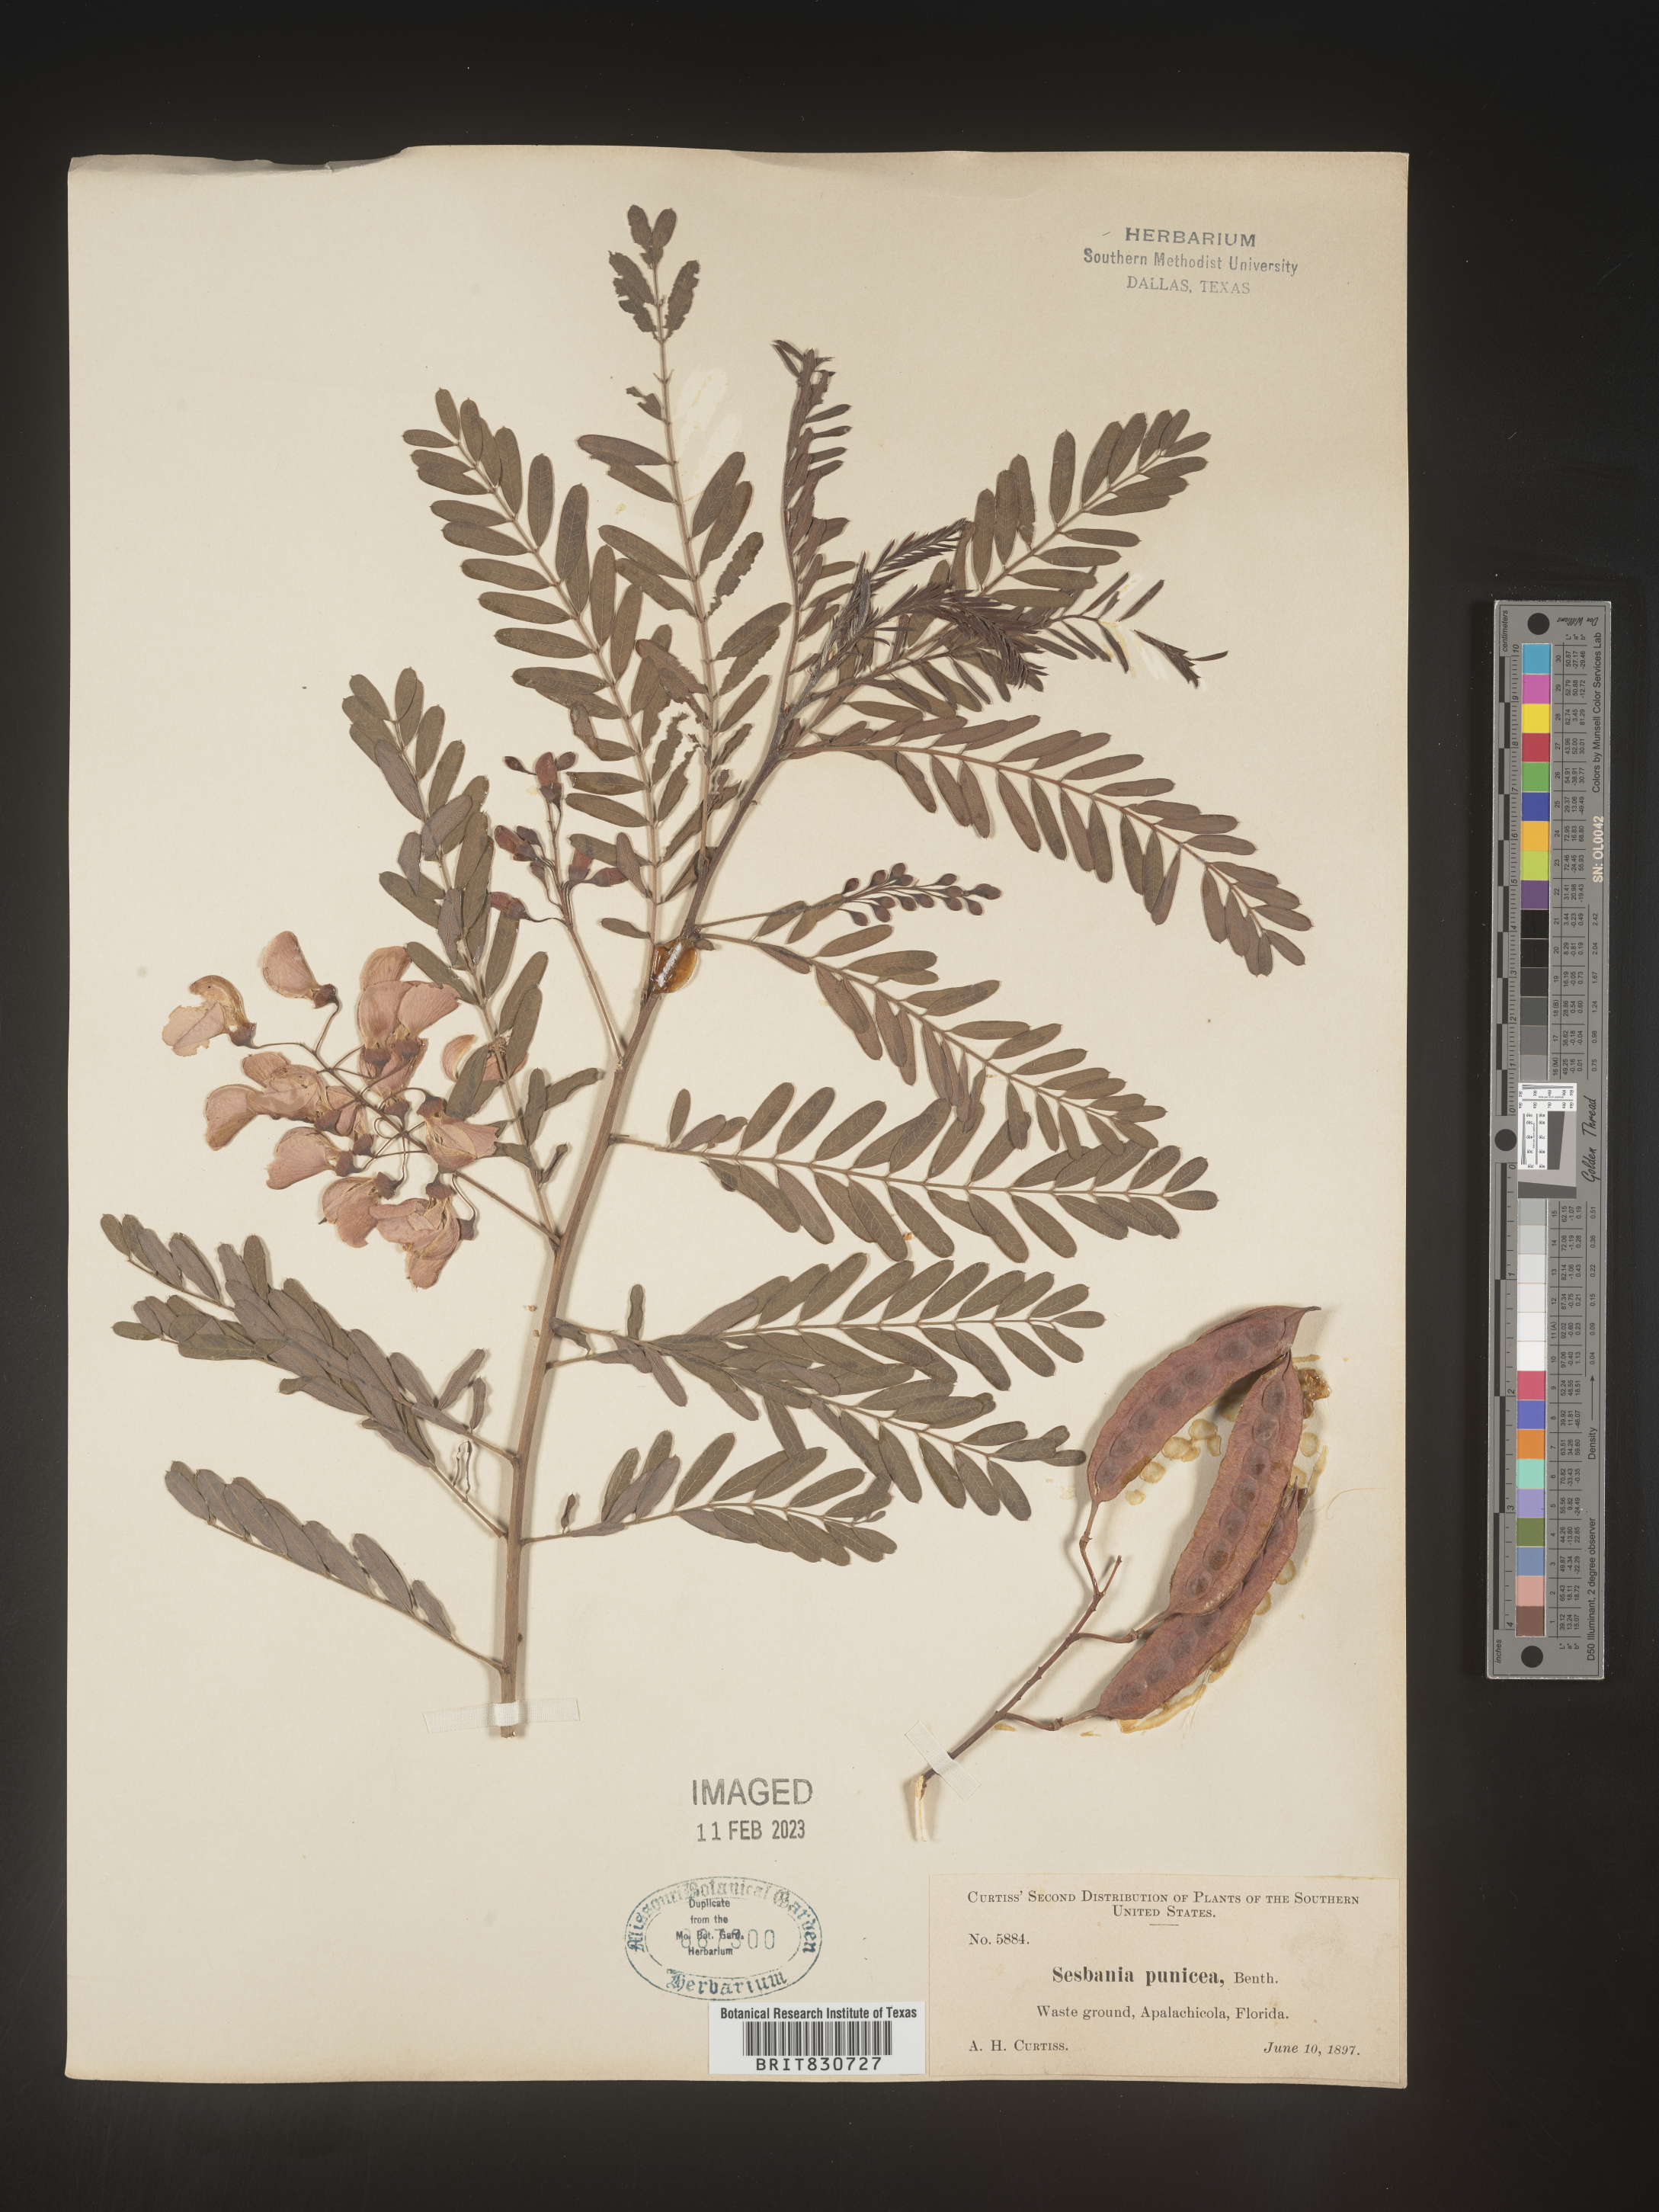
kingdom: Plantae
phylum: Tracheophyta
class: Magnoliopsida
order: Fabales
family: Fabaceae
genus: Sesbania
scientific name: Sesbania punicea
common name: Rattlebox
